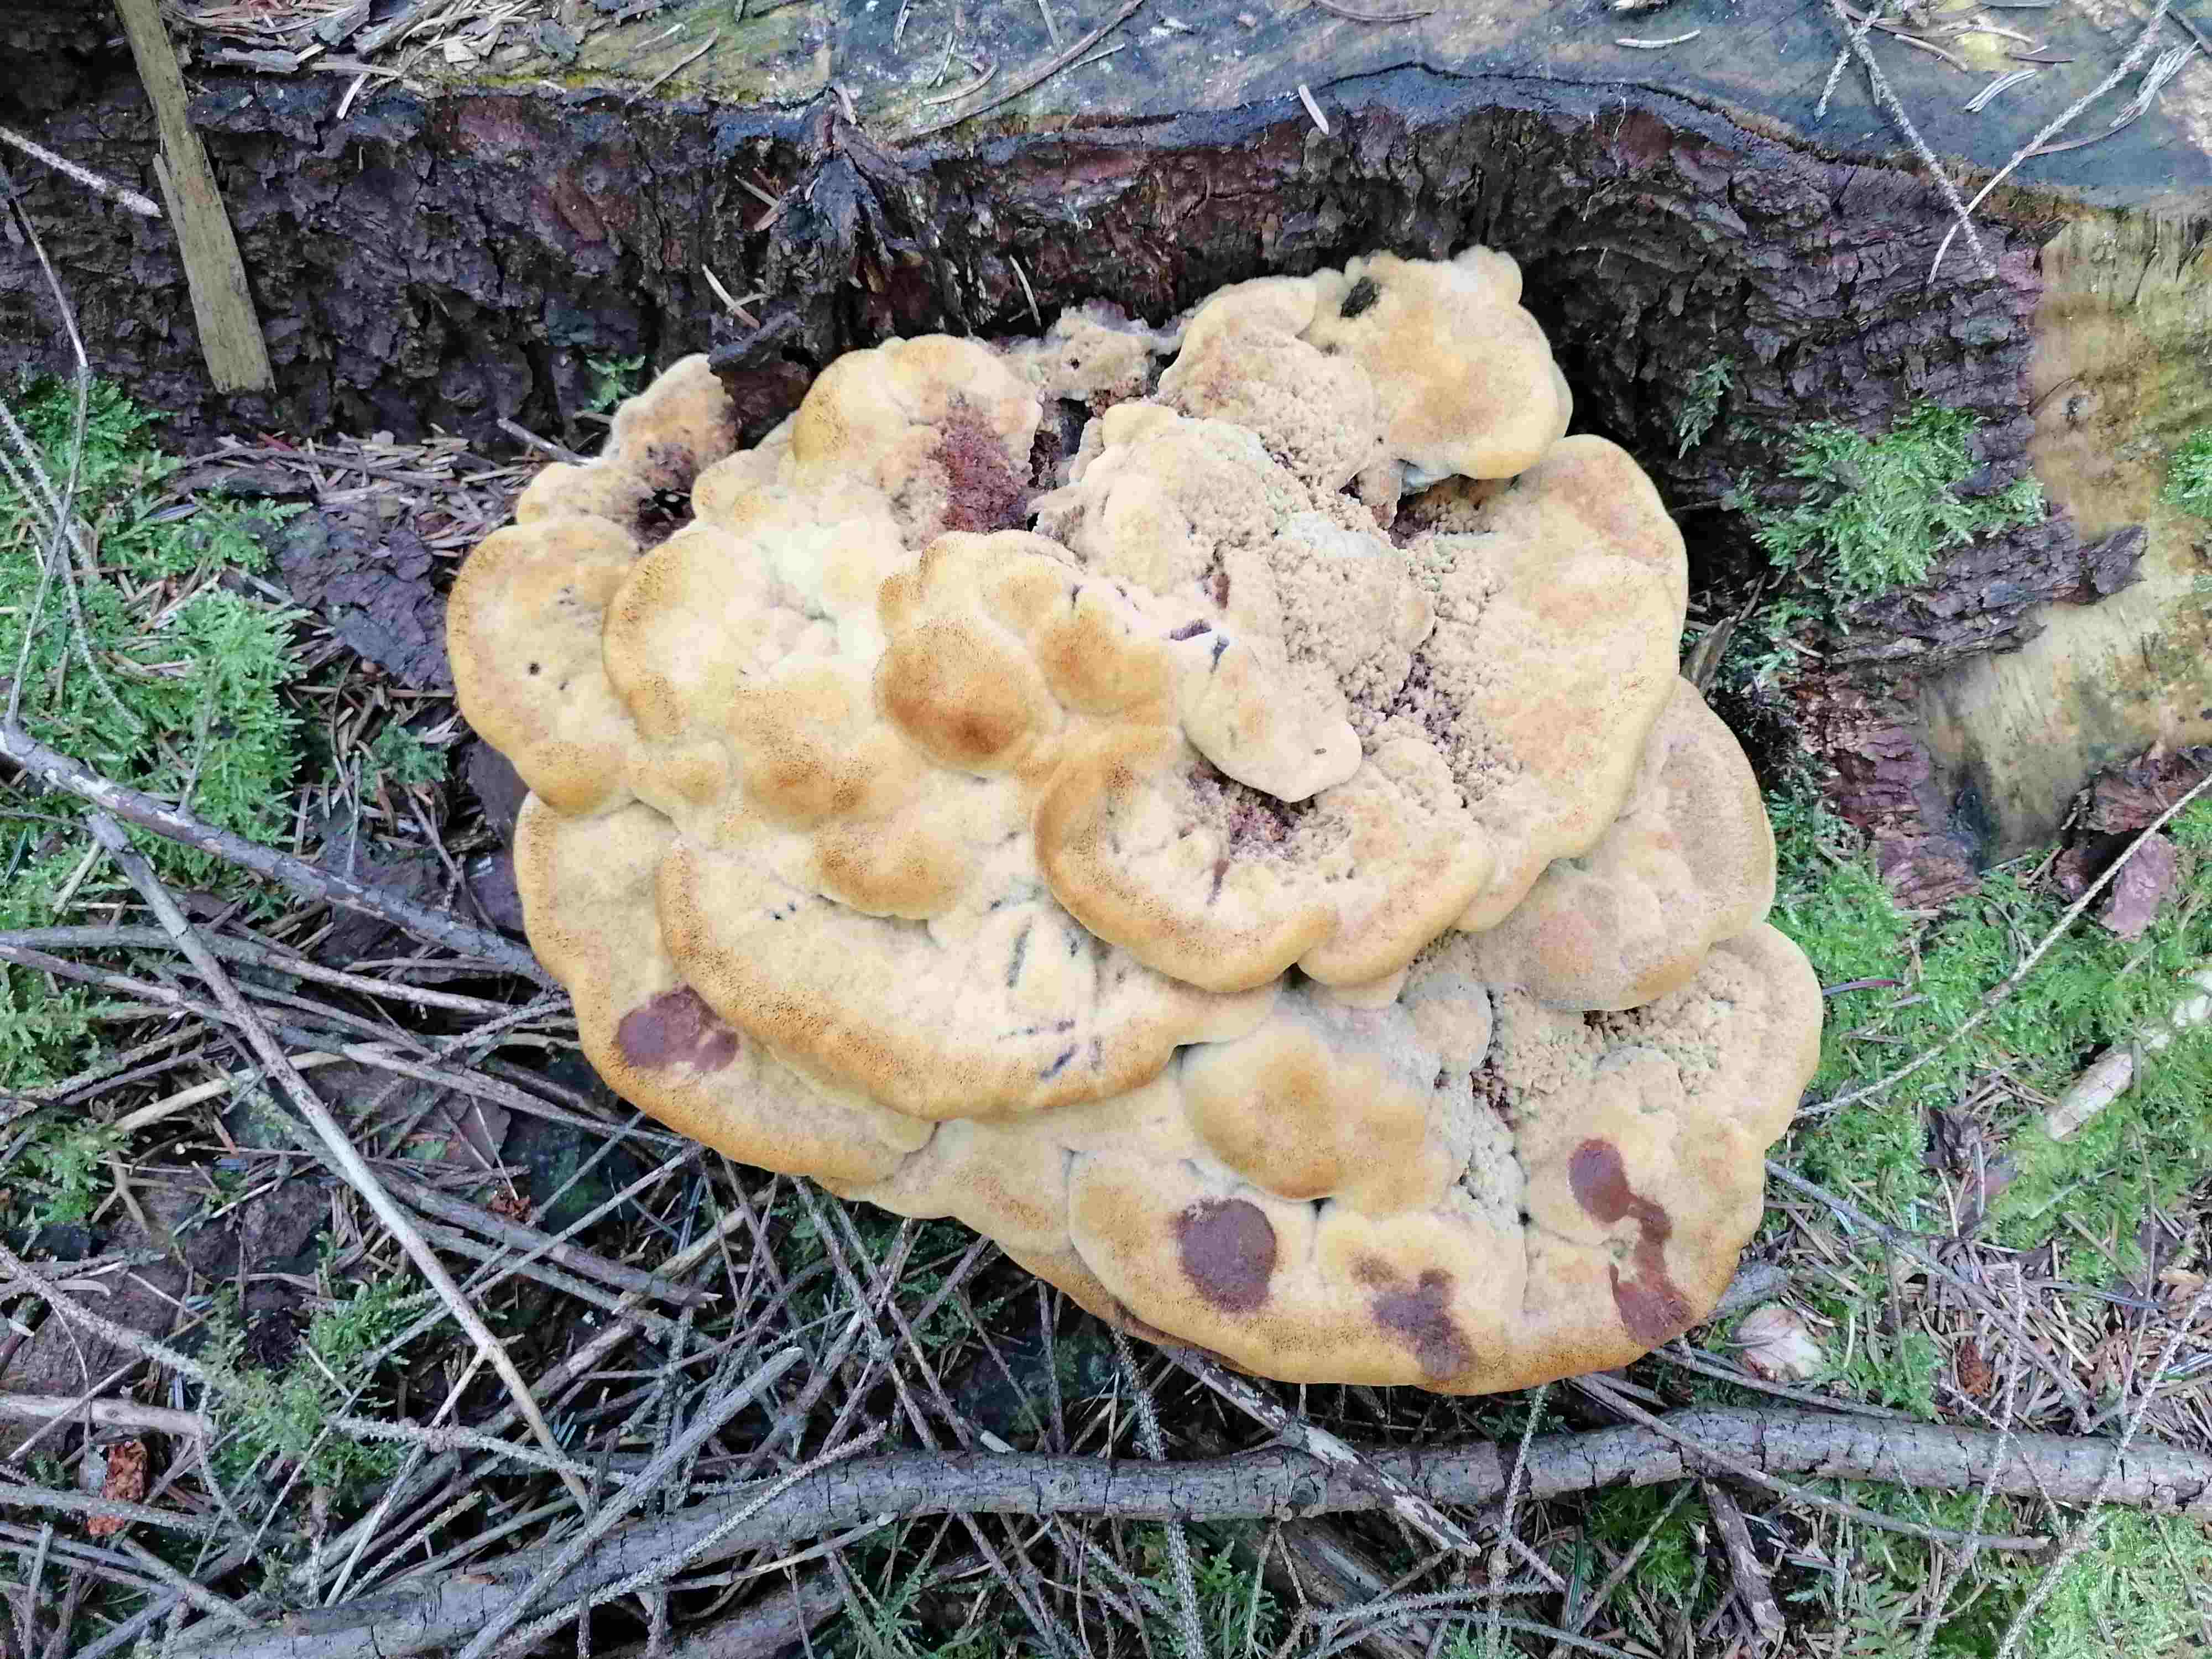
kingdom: Fungi
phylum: Basidiomycota
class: Agaricomycetes
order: Polyporales
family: Laetiporaceae
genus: Phaeolus
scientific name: Phaeolus schweinitzii
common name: brunporesvamp
